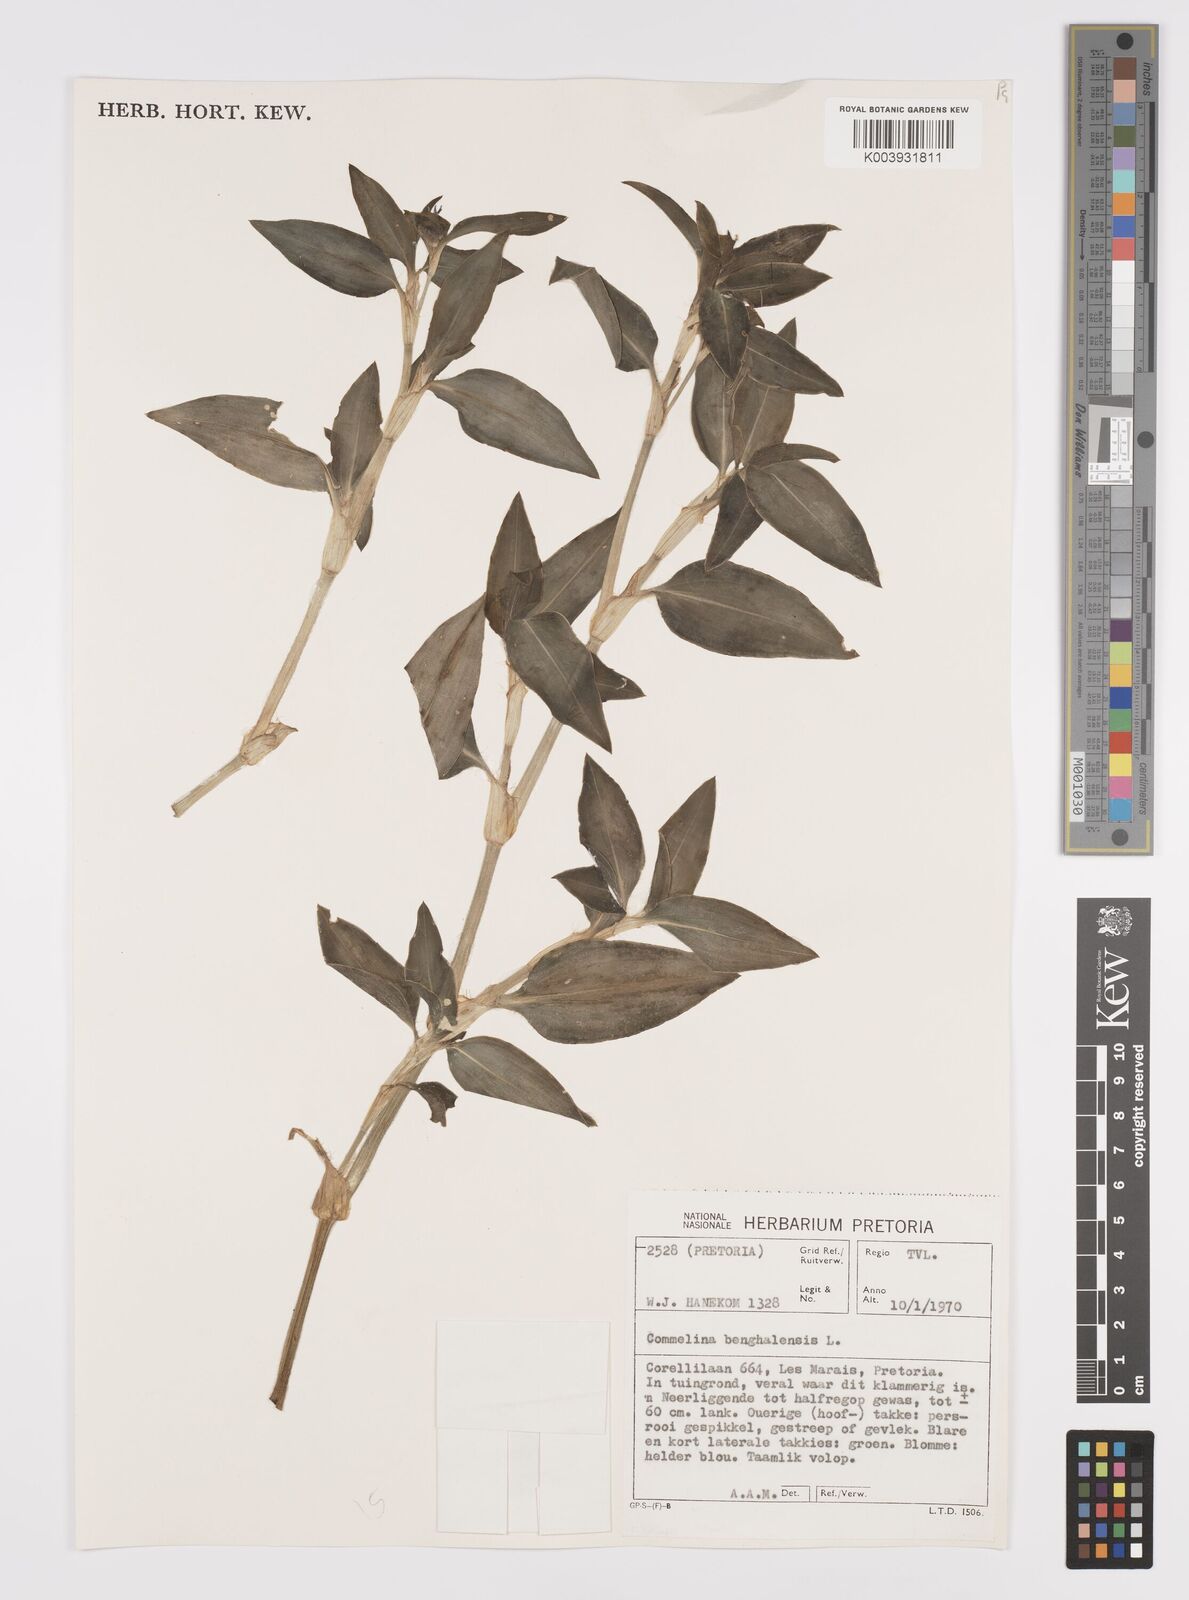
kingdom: Plantae
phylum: Tracheophyta
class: Liliopsida
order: Commelinales
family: Commelinaceae
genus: Commelina
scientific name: Commelina benghalensis
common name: Jio
